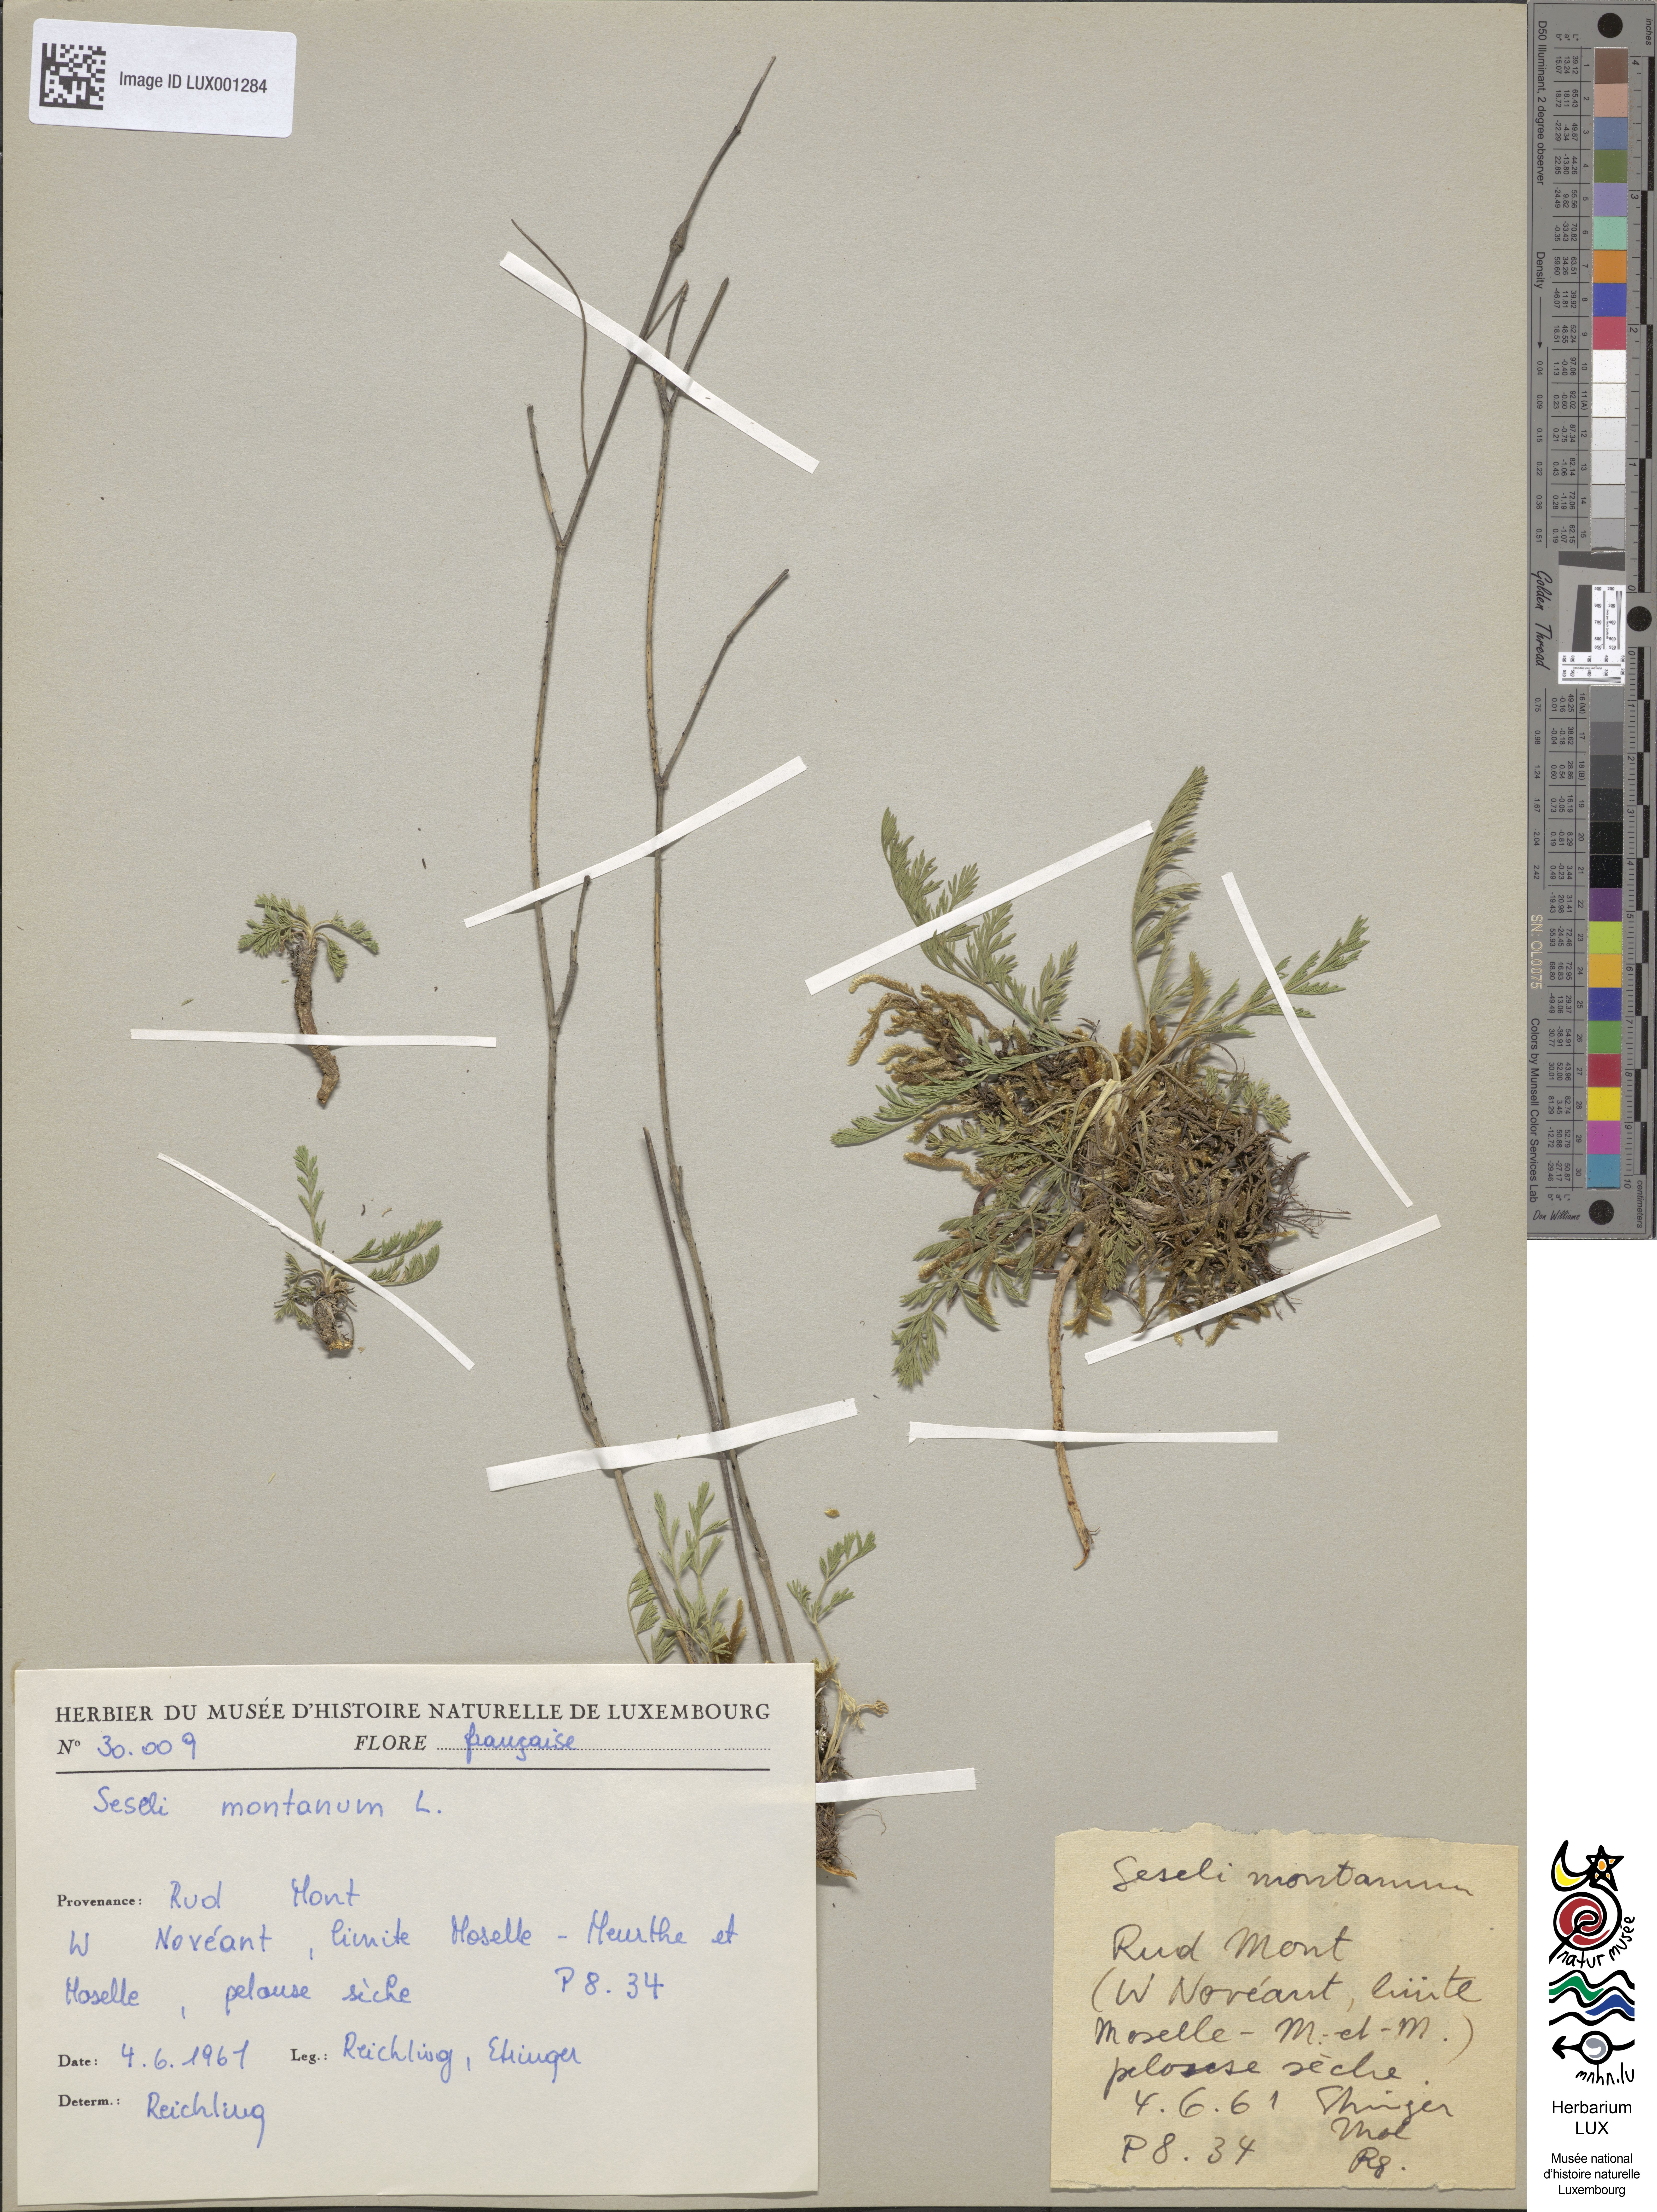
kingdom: Plantae
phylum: Tracheophyta
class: Magnoliopsida
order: Apiales
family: Apiaceae
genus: Seseli
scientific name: Seseli montanum
